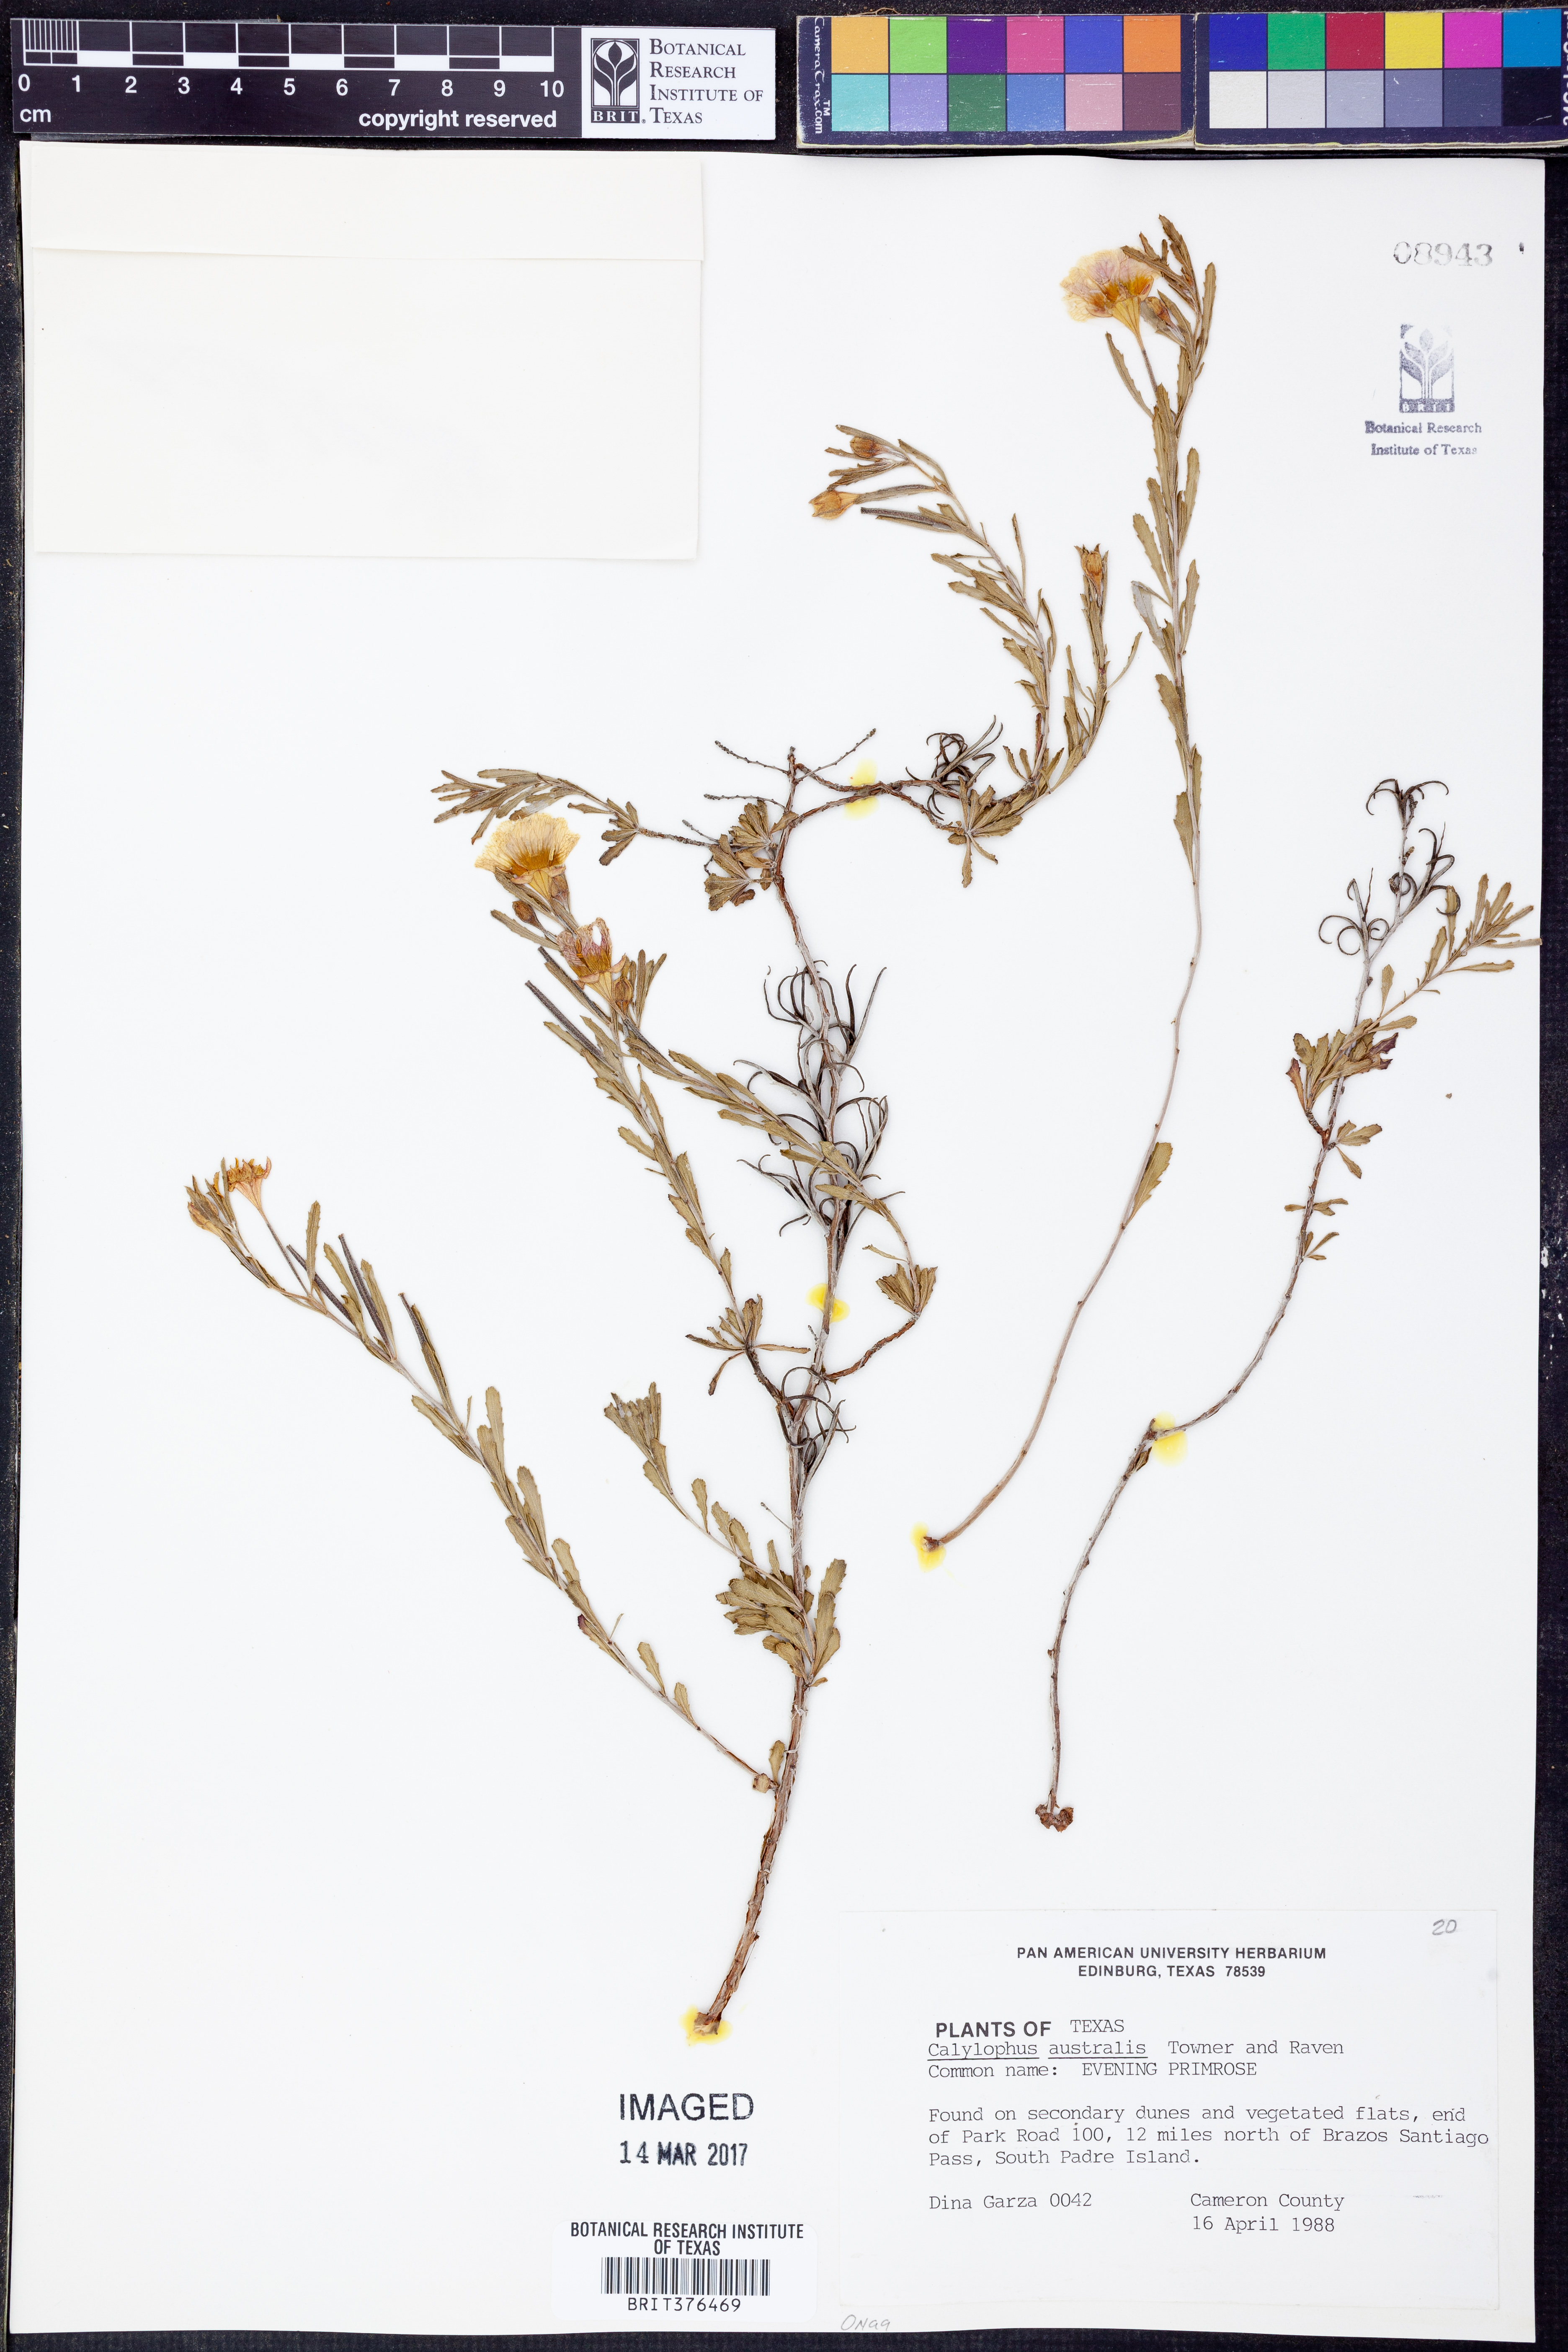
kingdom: Plantae
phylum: Tracheophyta
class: Magnoliopsida
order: Myrtales
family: Onagraceae
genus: Oenothera
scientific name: Oenothera serrulata
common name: Half-shrub calylophus
